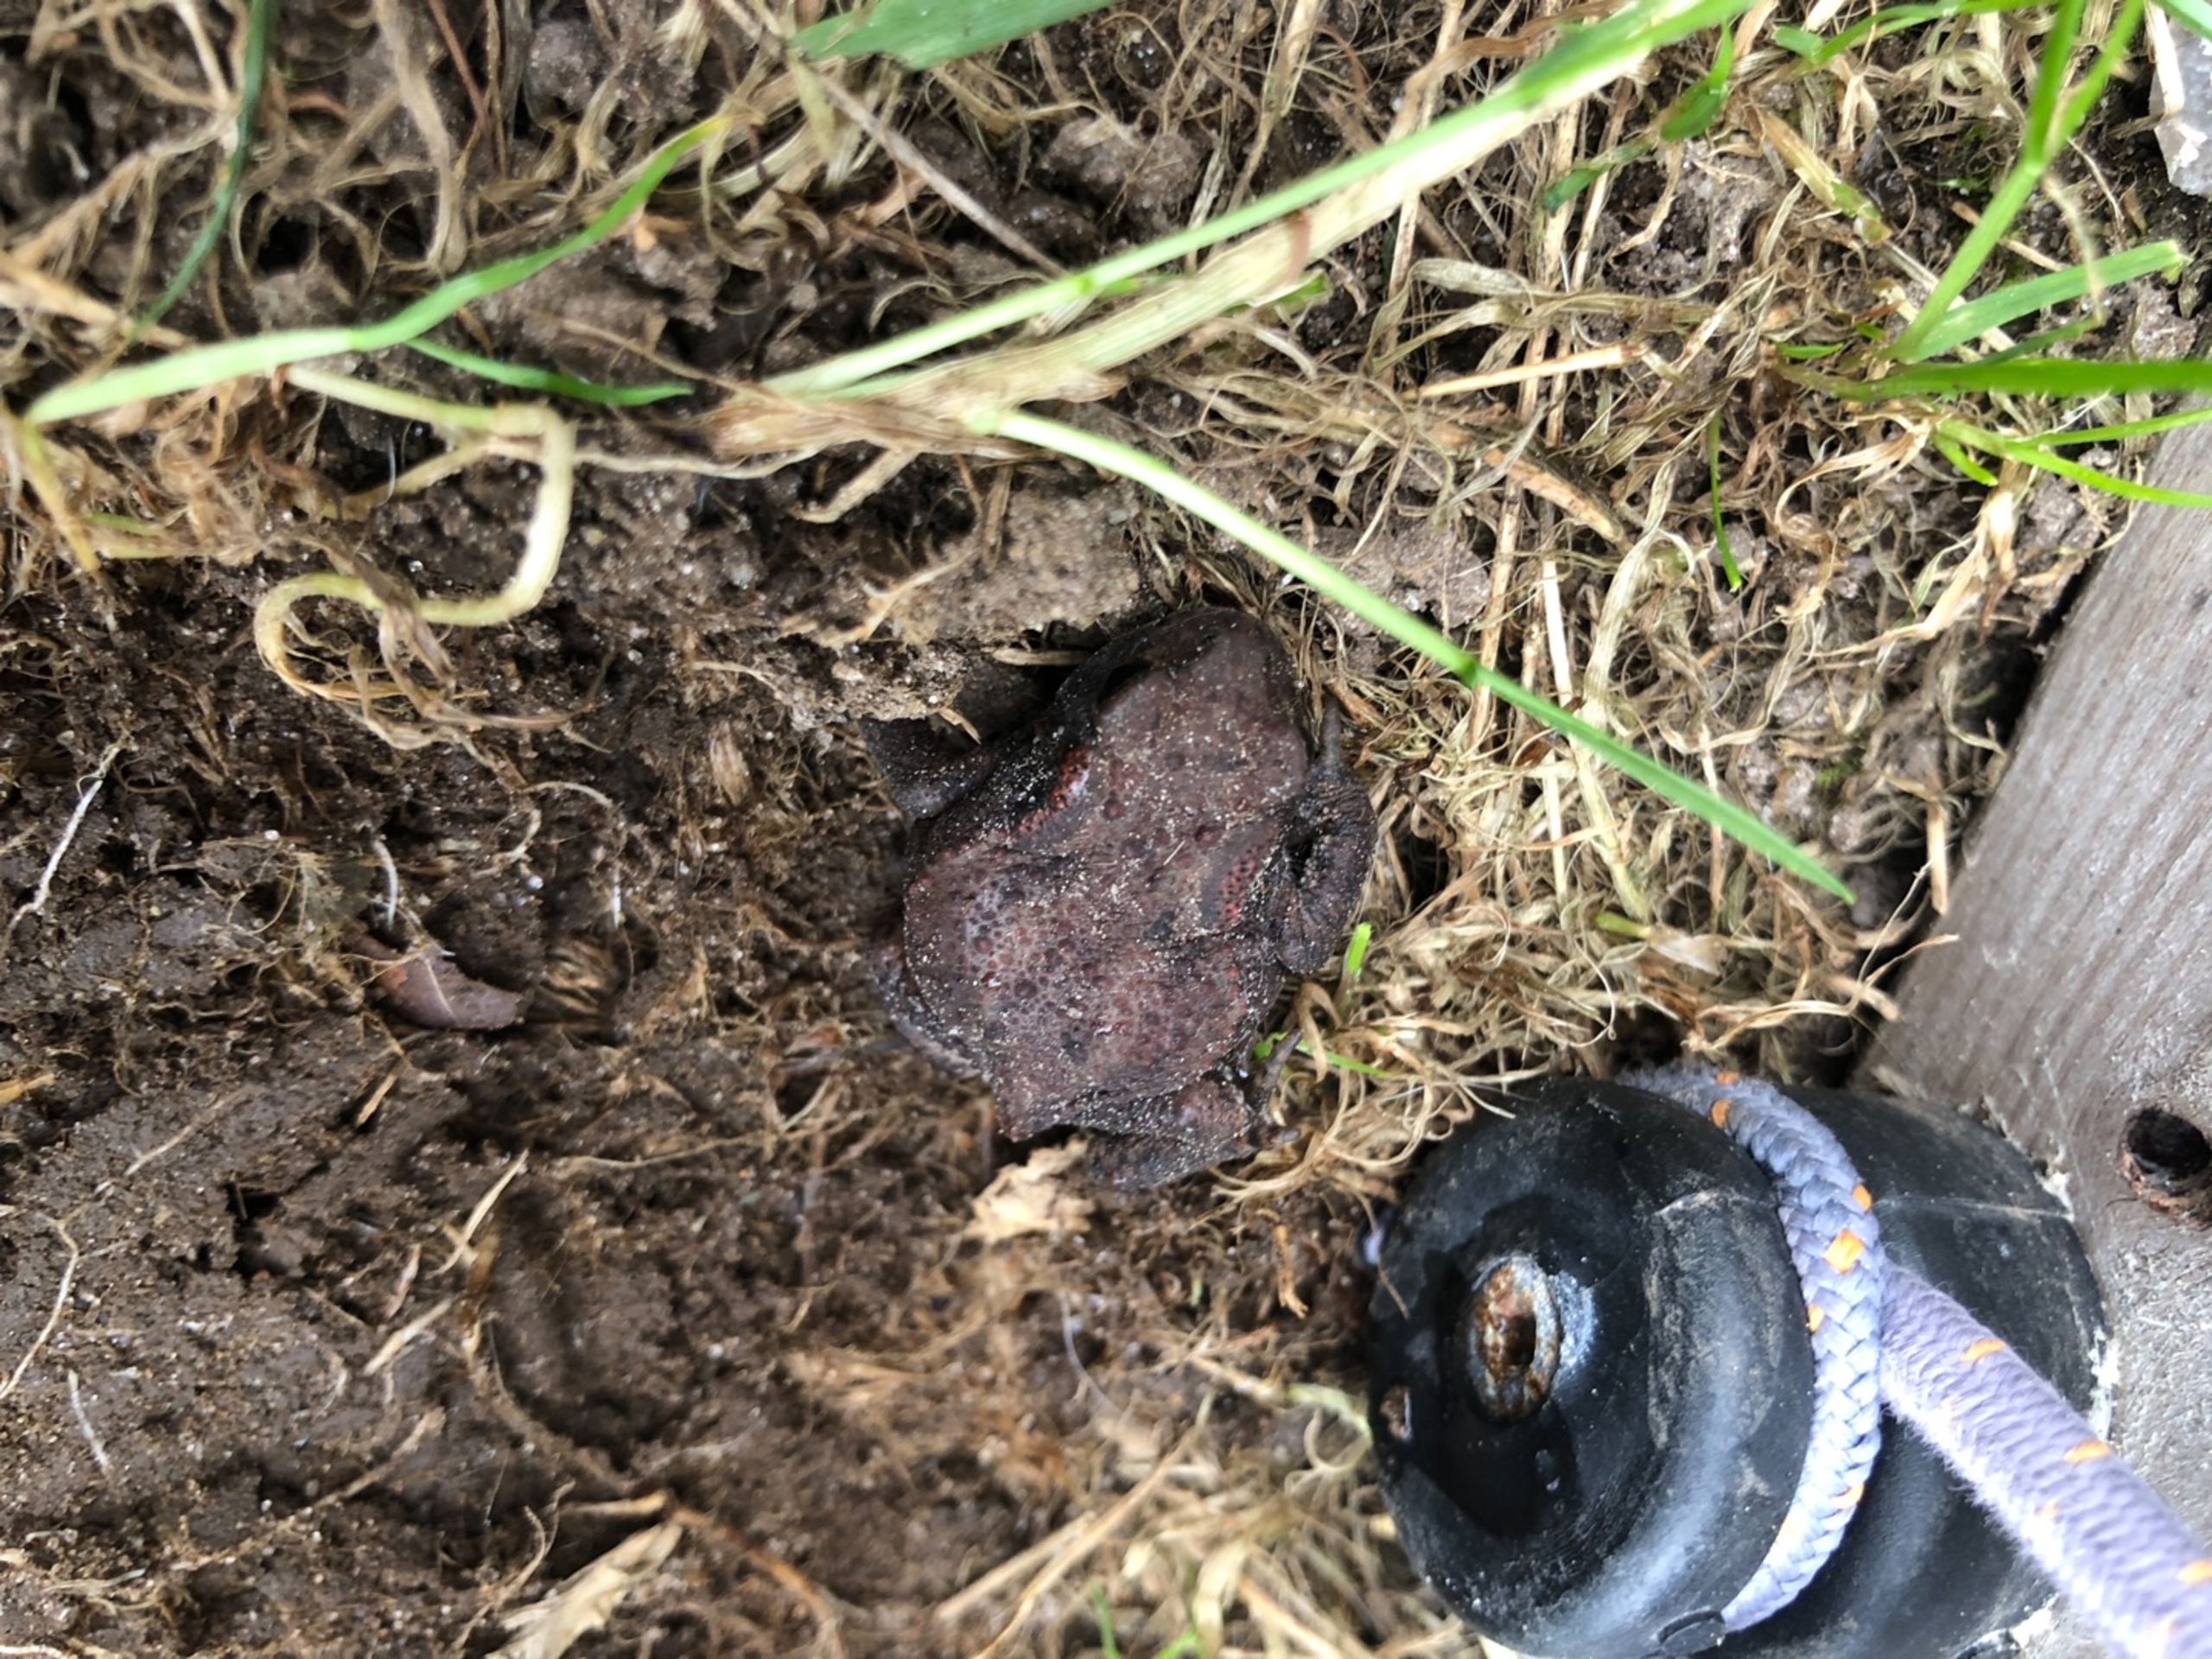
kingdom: Animalia
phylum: Chordata
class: Amphibia
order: Anura
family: Bufonidae
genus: Bufo
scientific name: Bufo bufo
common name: Skrubtudse
